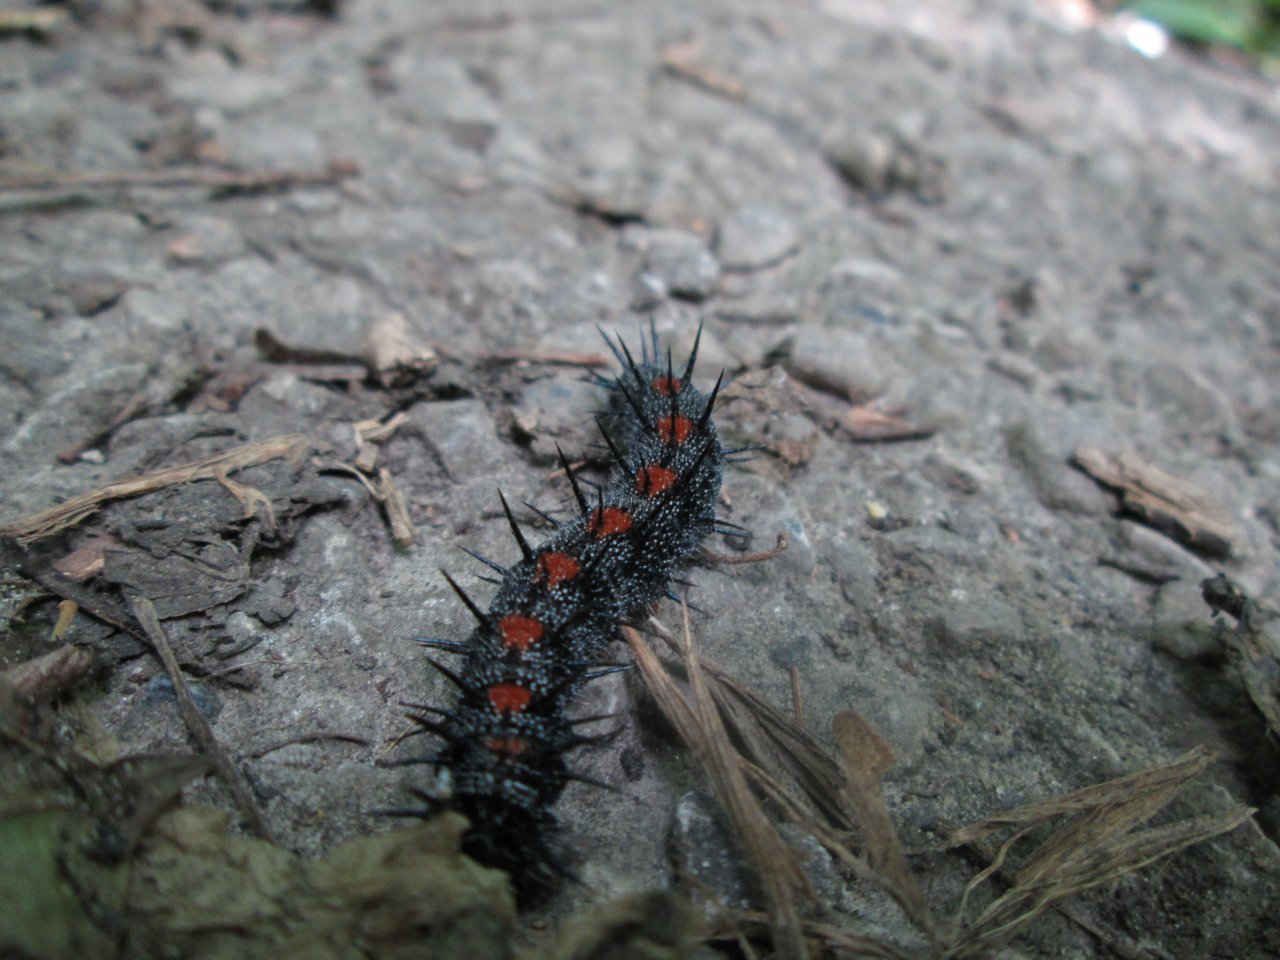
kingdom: Animalia
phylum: Arthropoda
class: Insecta
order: Lepidoptera
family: Nymphalidae
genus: Nymphalis
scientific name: Nymphalis antiopa
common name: Mourning Cloak
